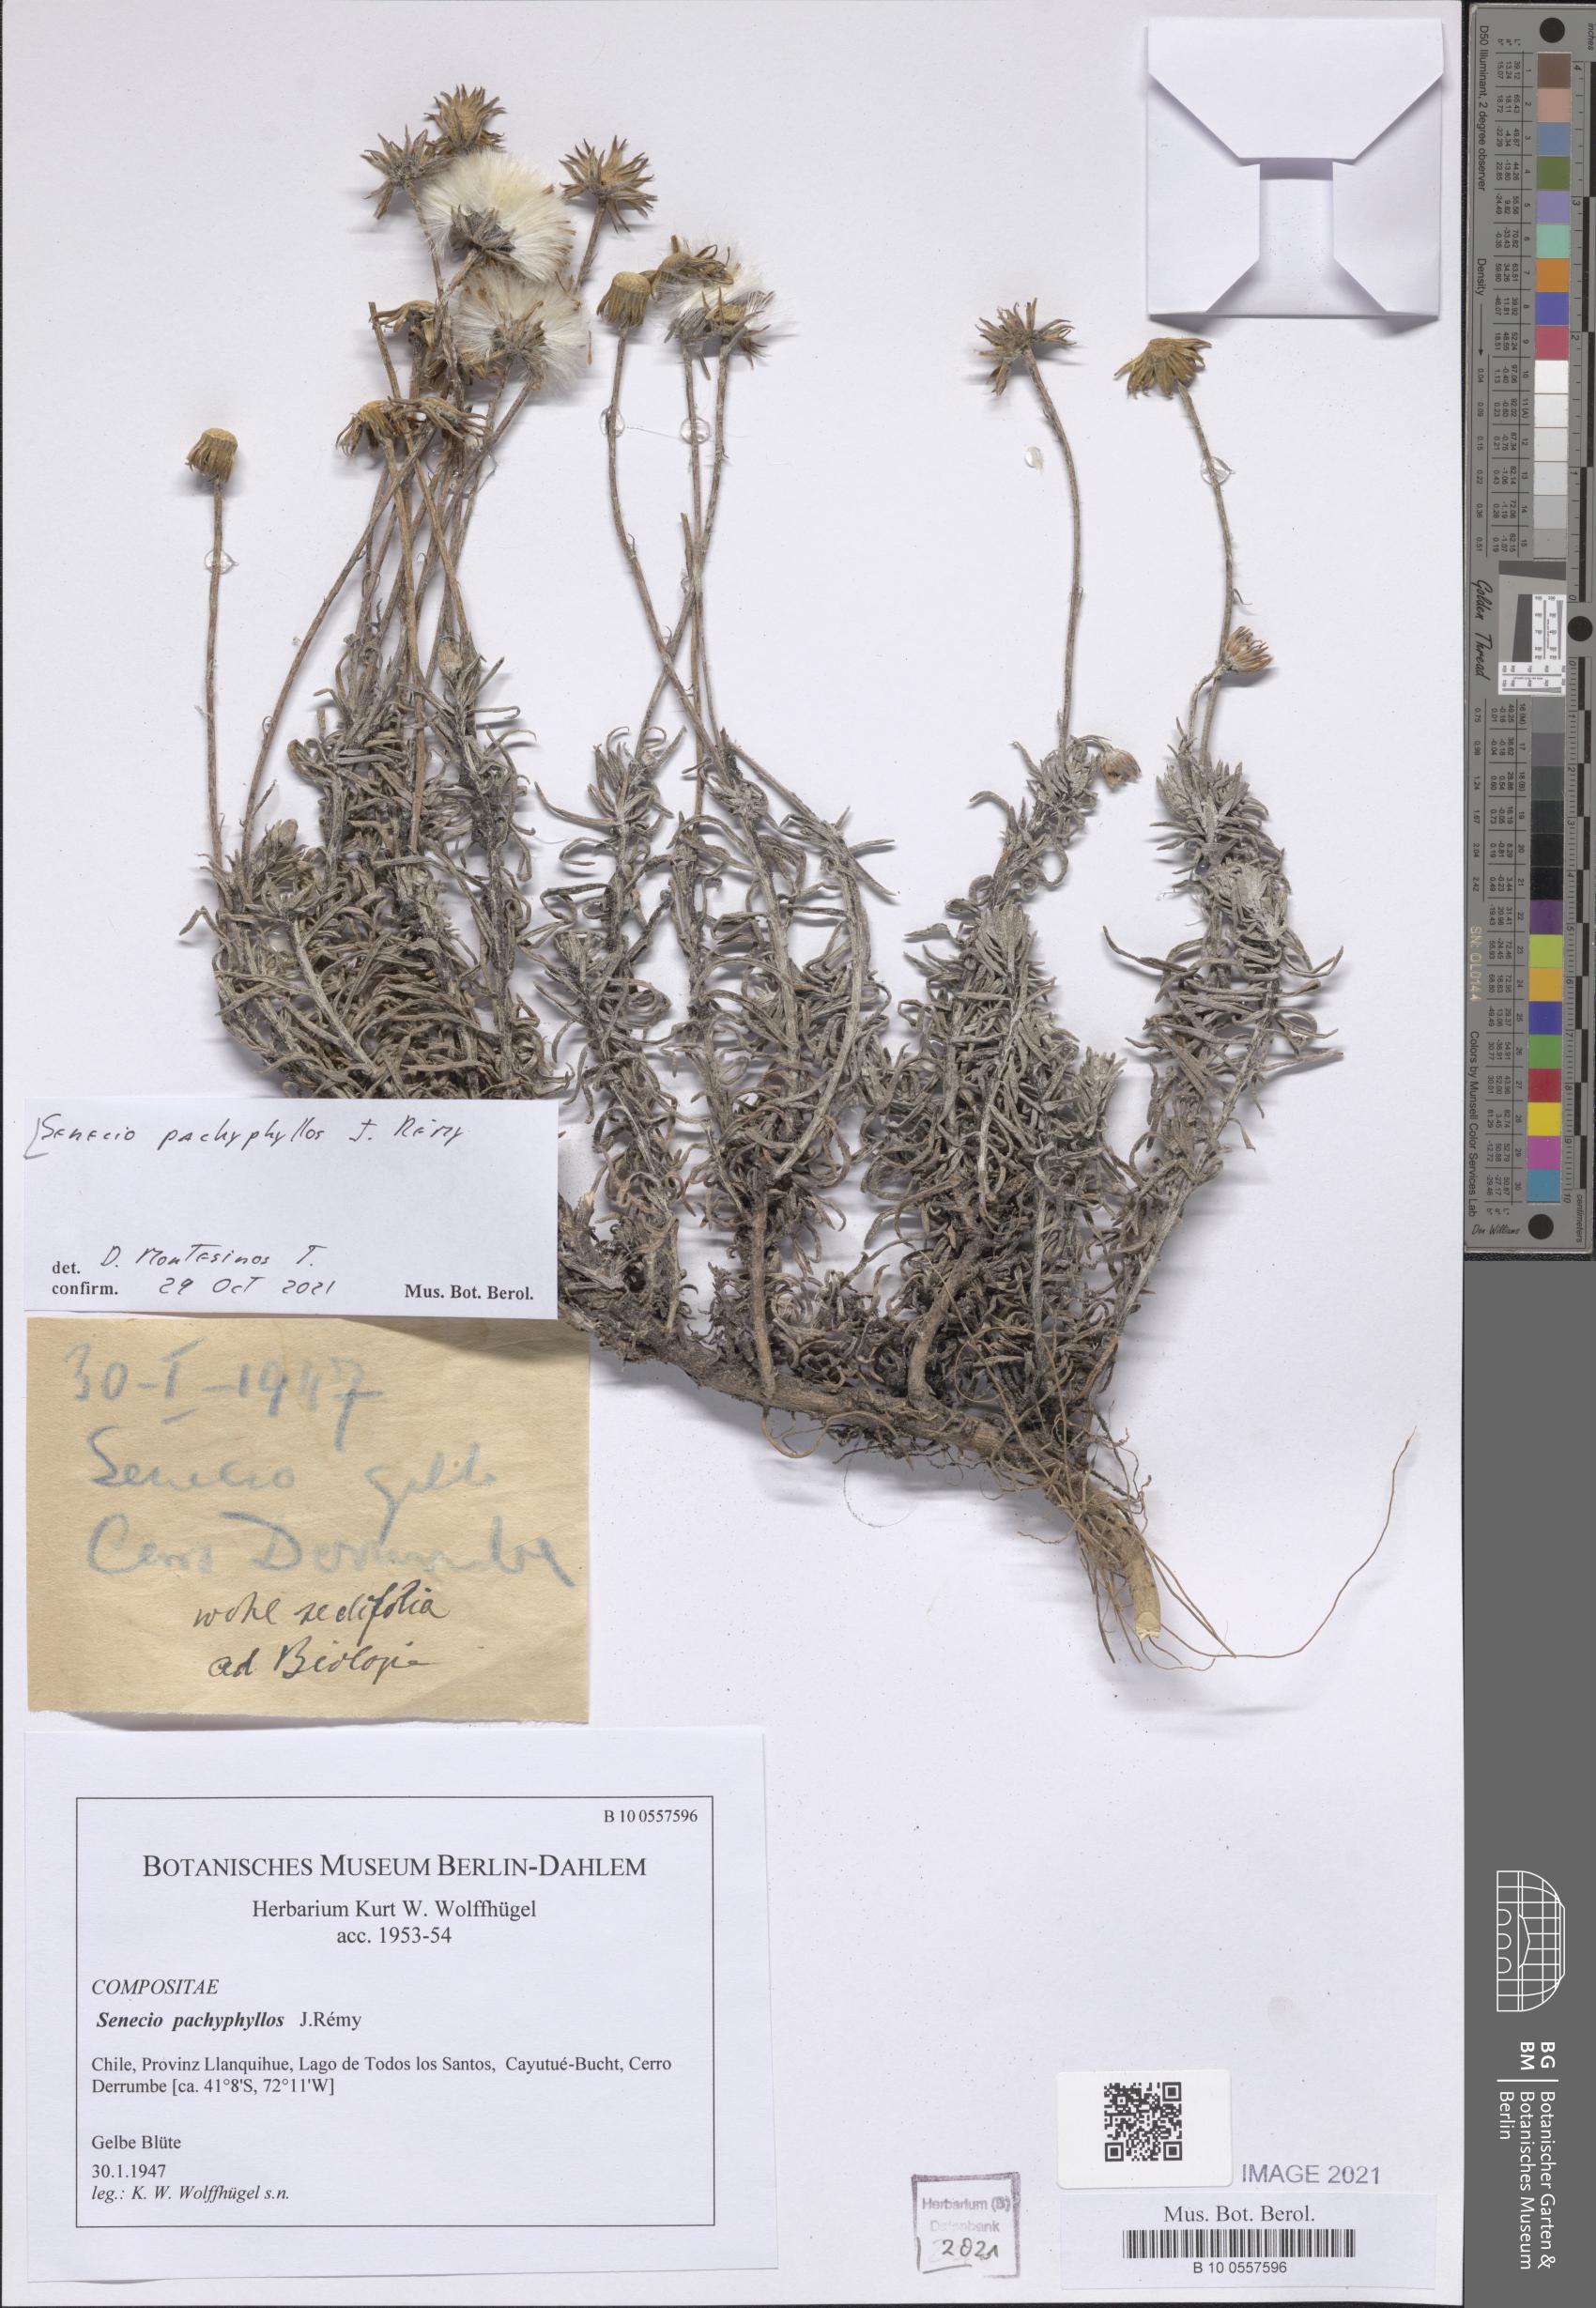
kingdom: Plantae
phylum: Tracheophyta
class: Magnoliopsida
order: Asterales
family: Asteraceae
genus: Senecio
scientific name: Senecio pachyphyllos
